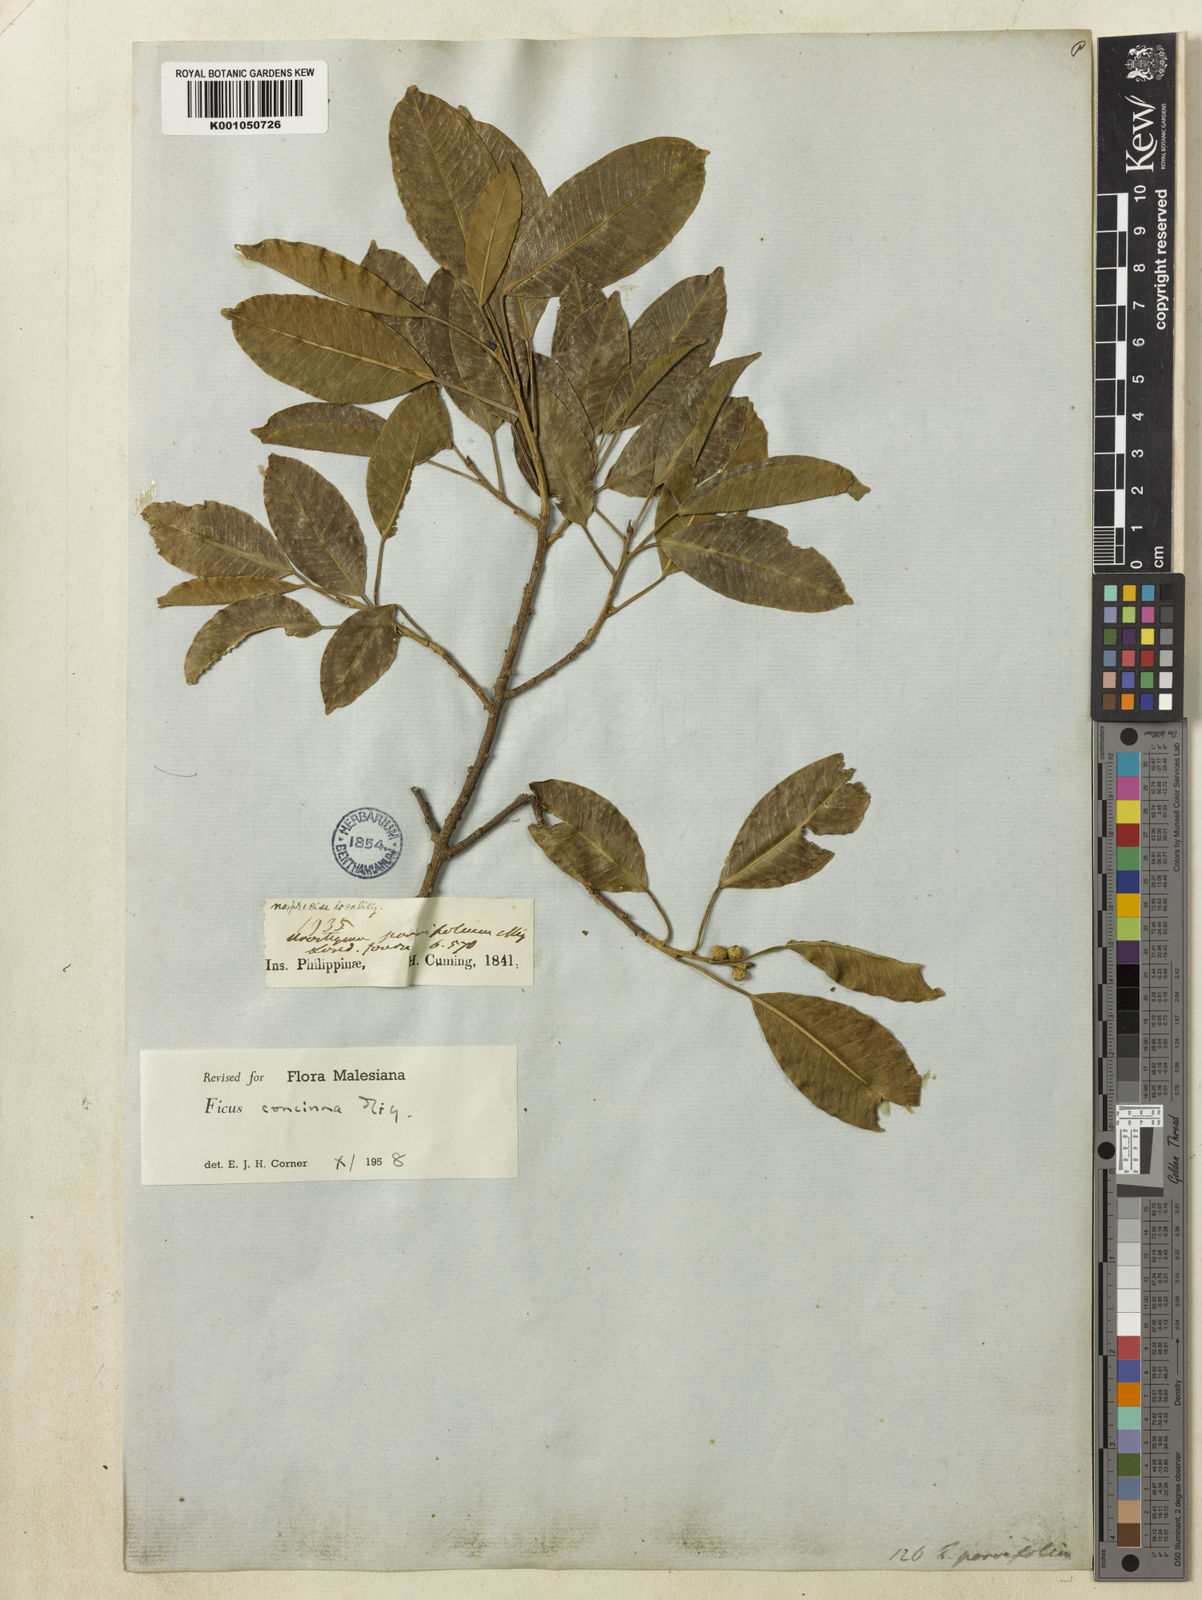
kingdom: Plantae
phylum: Tracheophyta
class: Magnoliopsida
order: Rosales
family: Moraceae
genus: Ficus
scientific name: Ficus concinna
